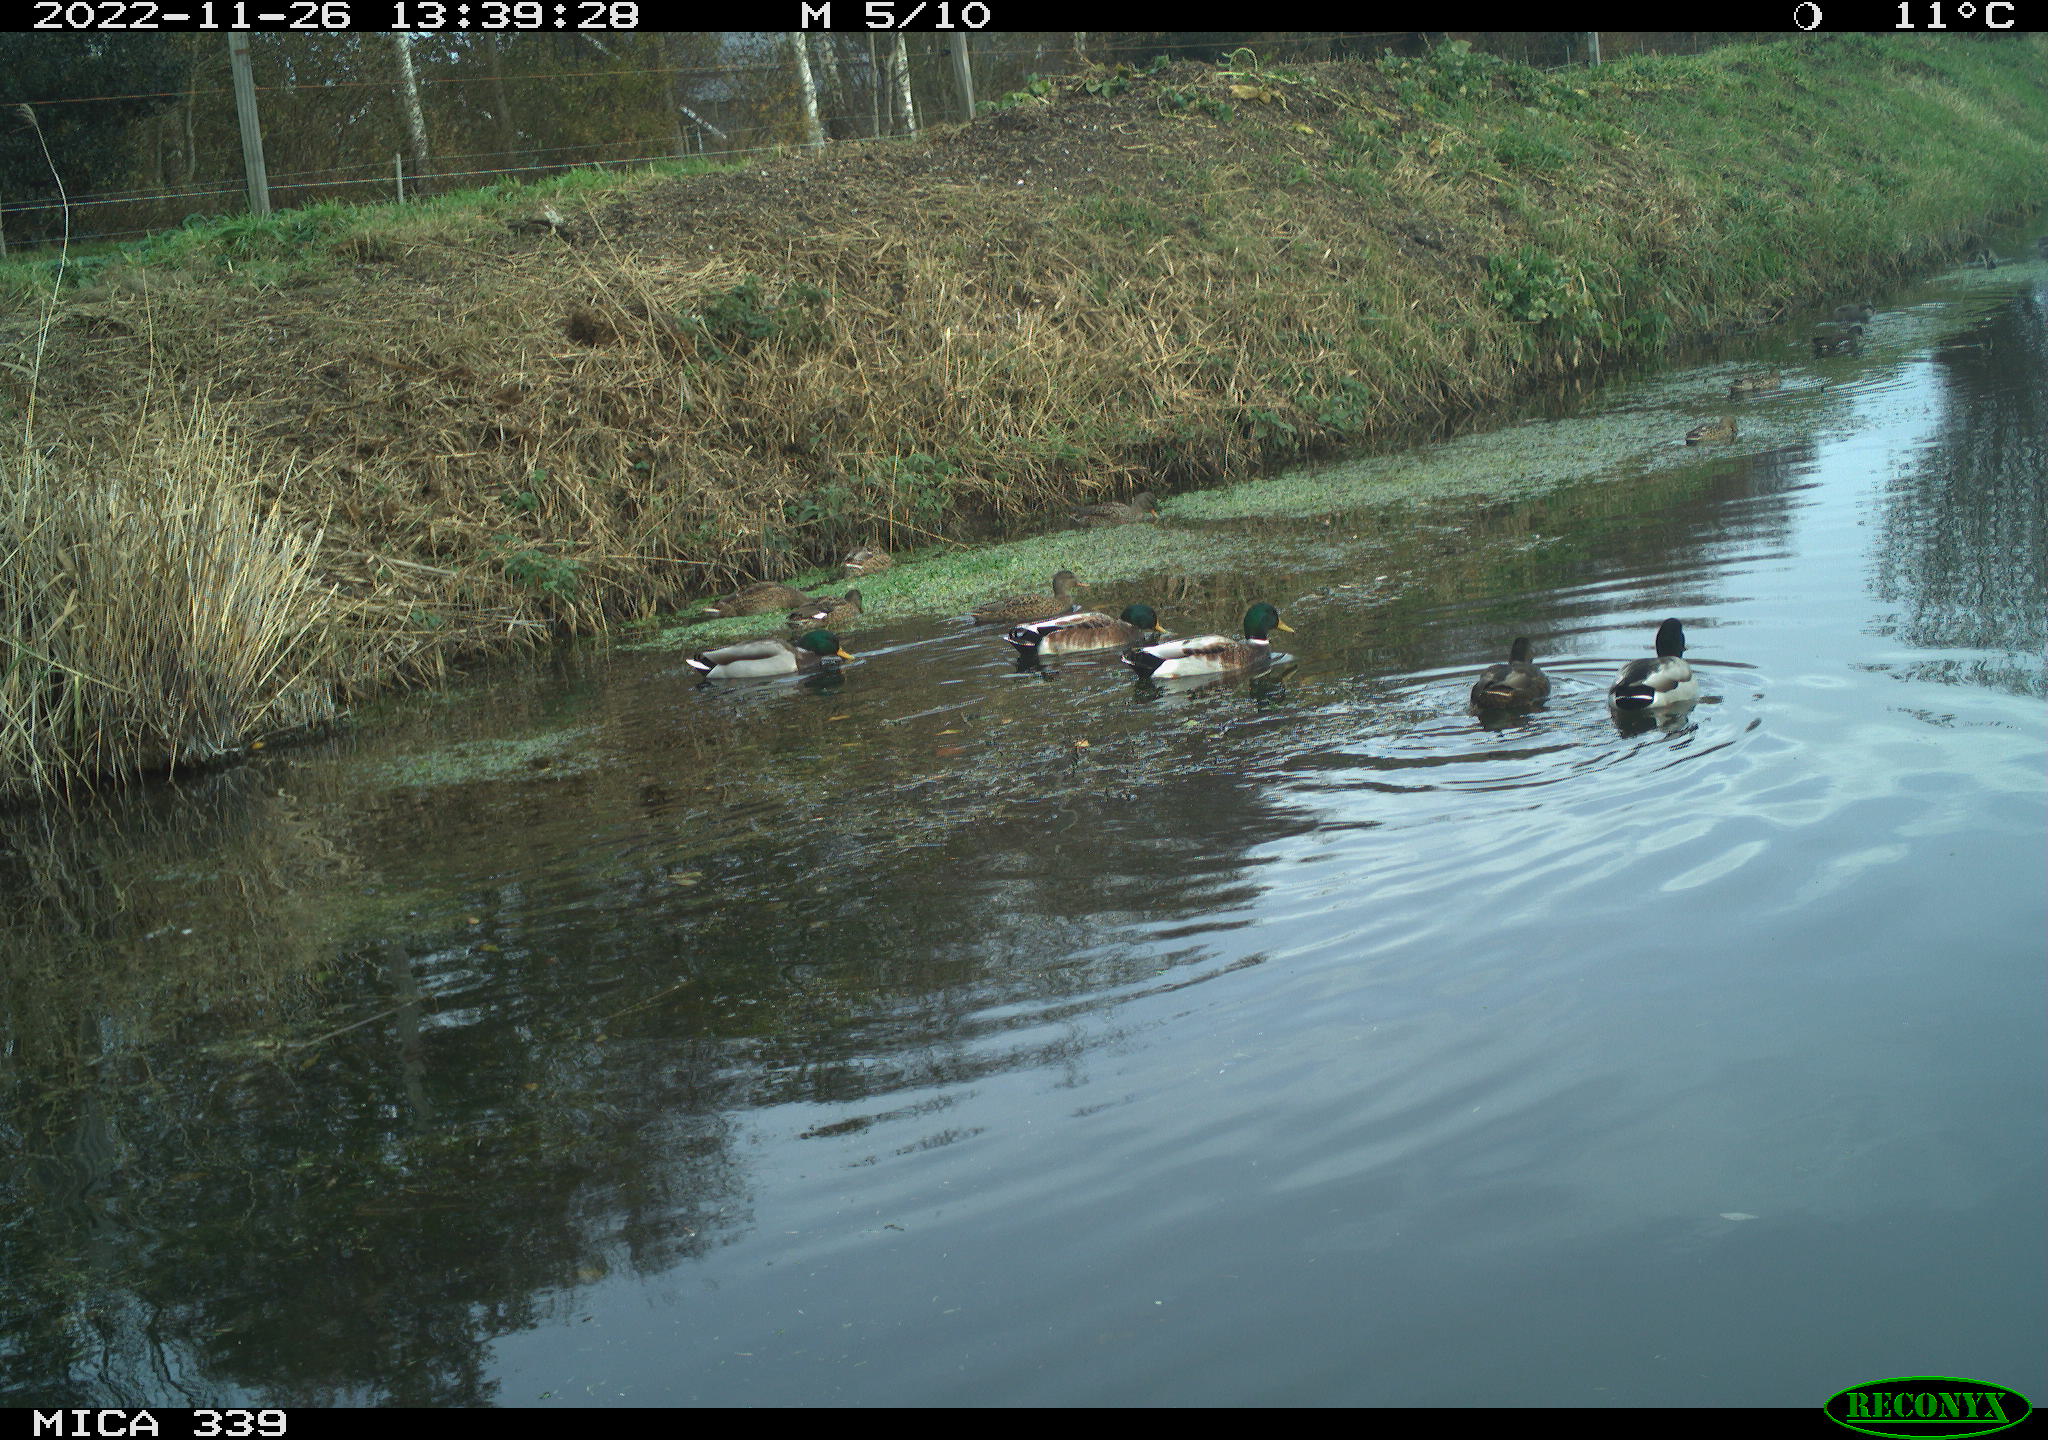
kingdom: Animalia
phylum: Chordata
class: Aves
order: Anseriformes
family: Anatidae
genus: Anas
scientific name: Anas
